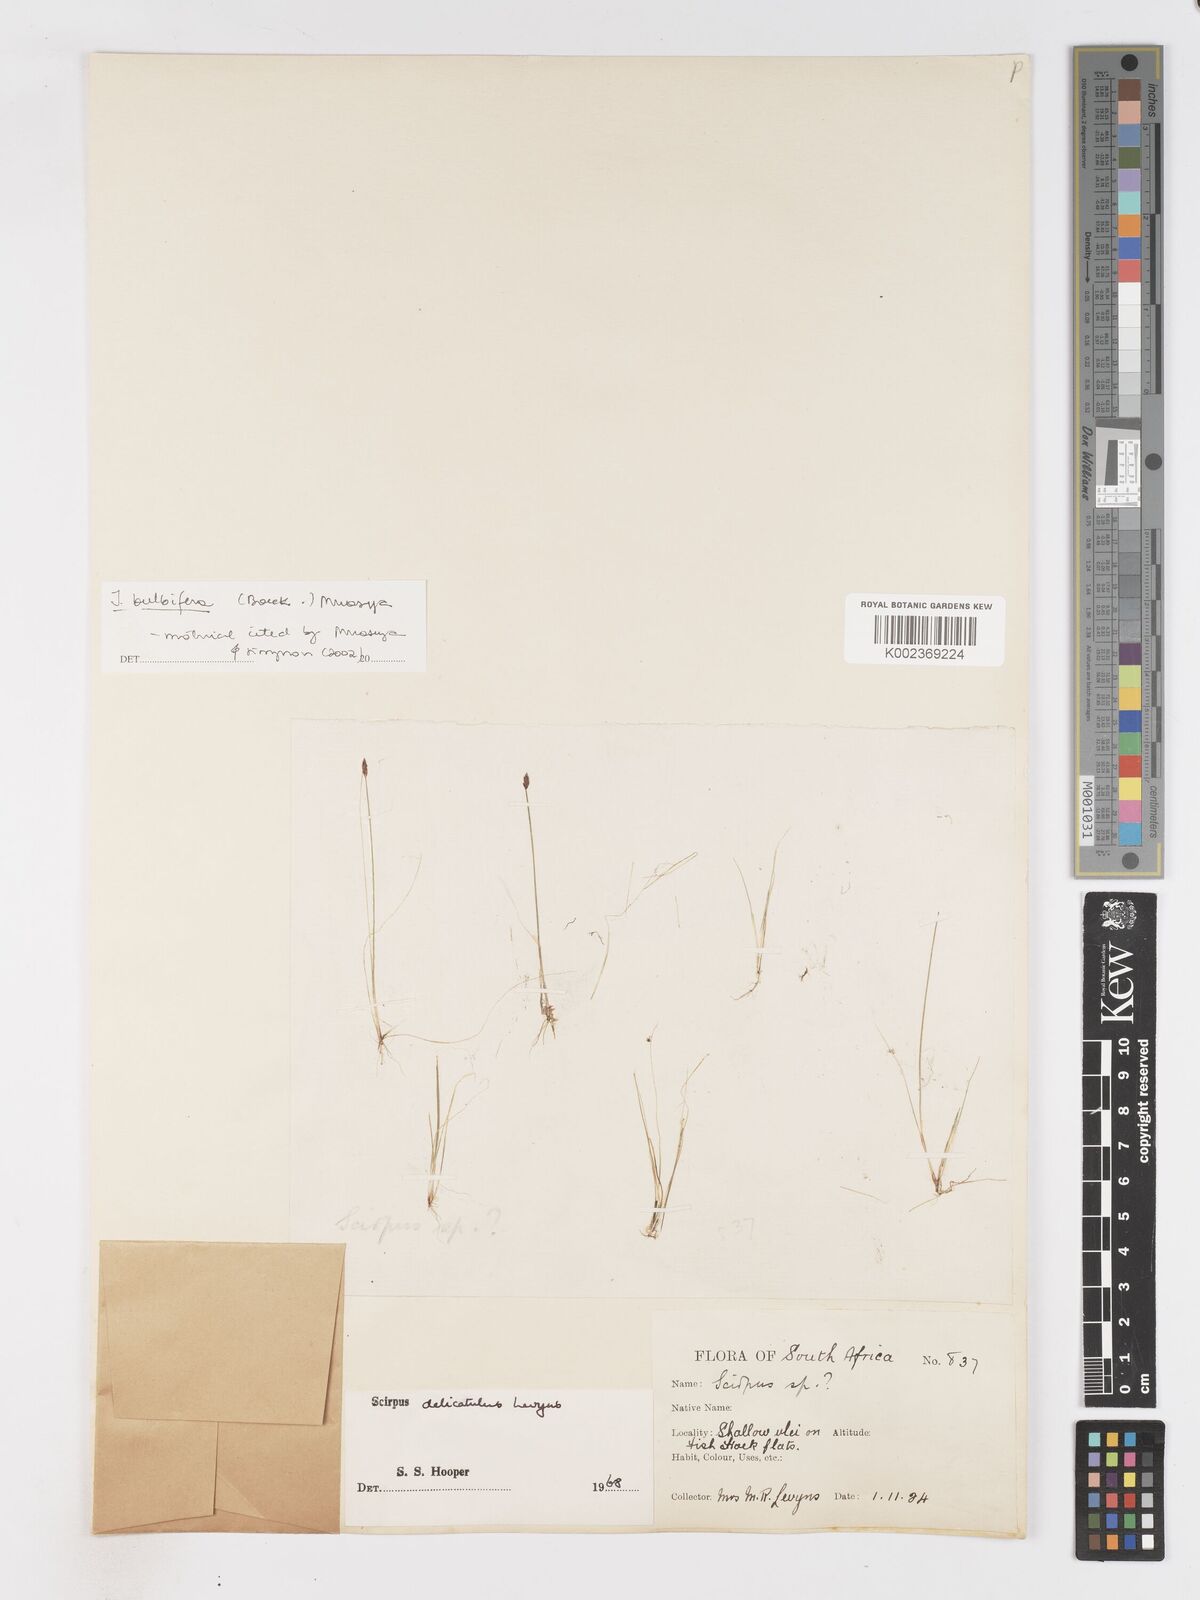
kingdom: Plantae
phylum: Tracheophyta
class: Liliopsida
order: Poales
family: Cyperaceae
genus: Isolepis
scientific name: Isolepis bulbifera
